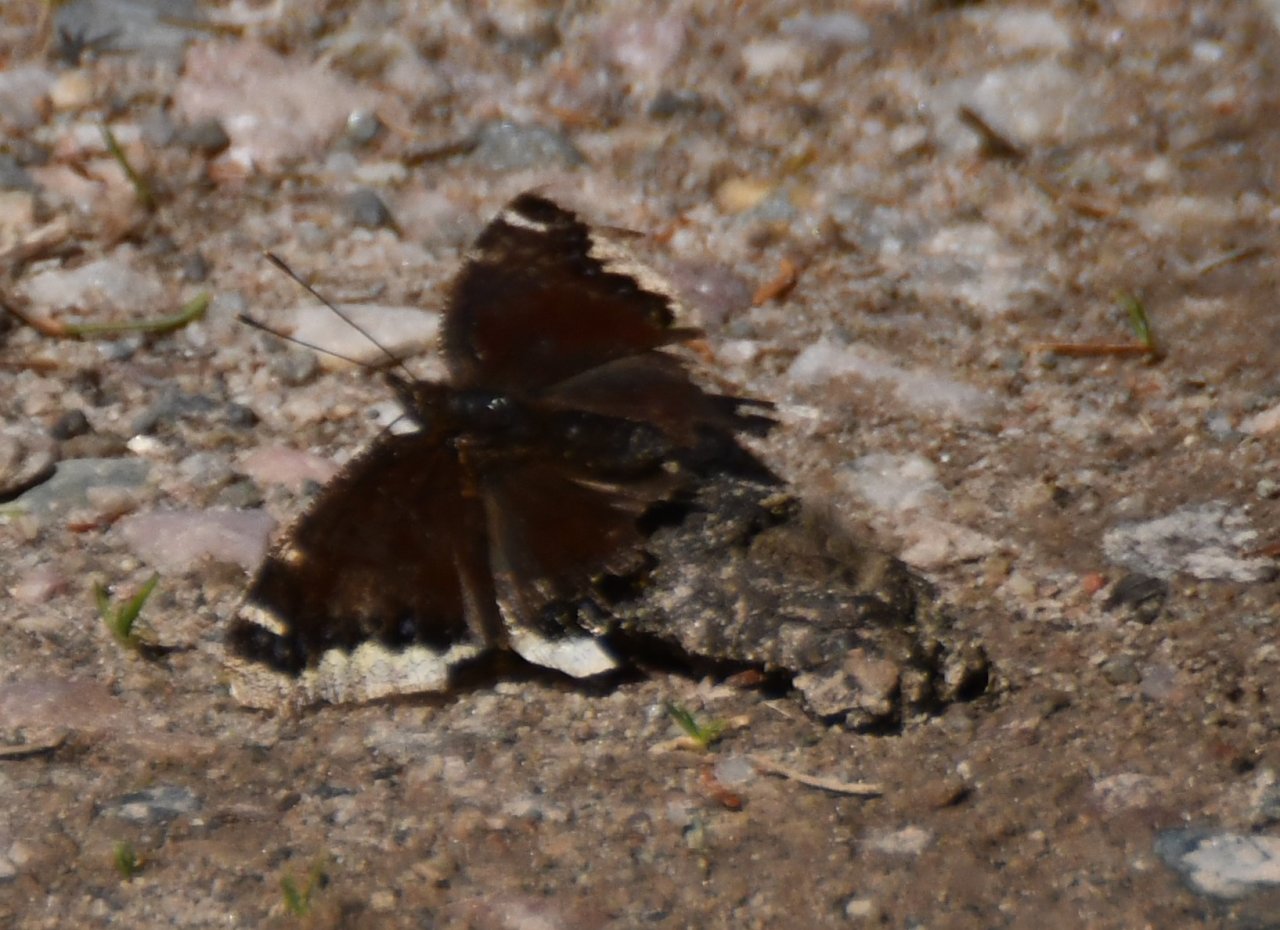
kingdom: Animalia
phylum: Arthropoda
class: Insecta
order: Lepidoptera
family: Nymphalidae
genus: Nymphalis
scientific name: Nymphalis antiopa
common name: Mourning Cloak
